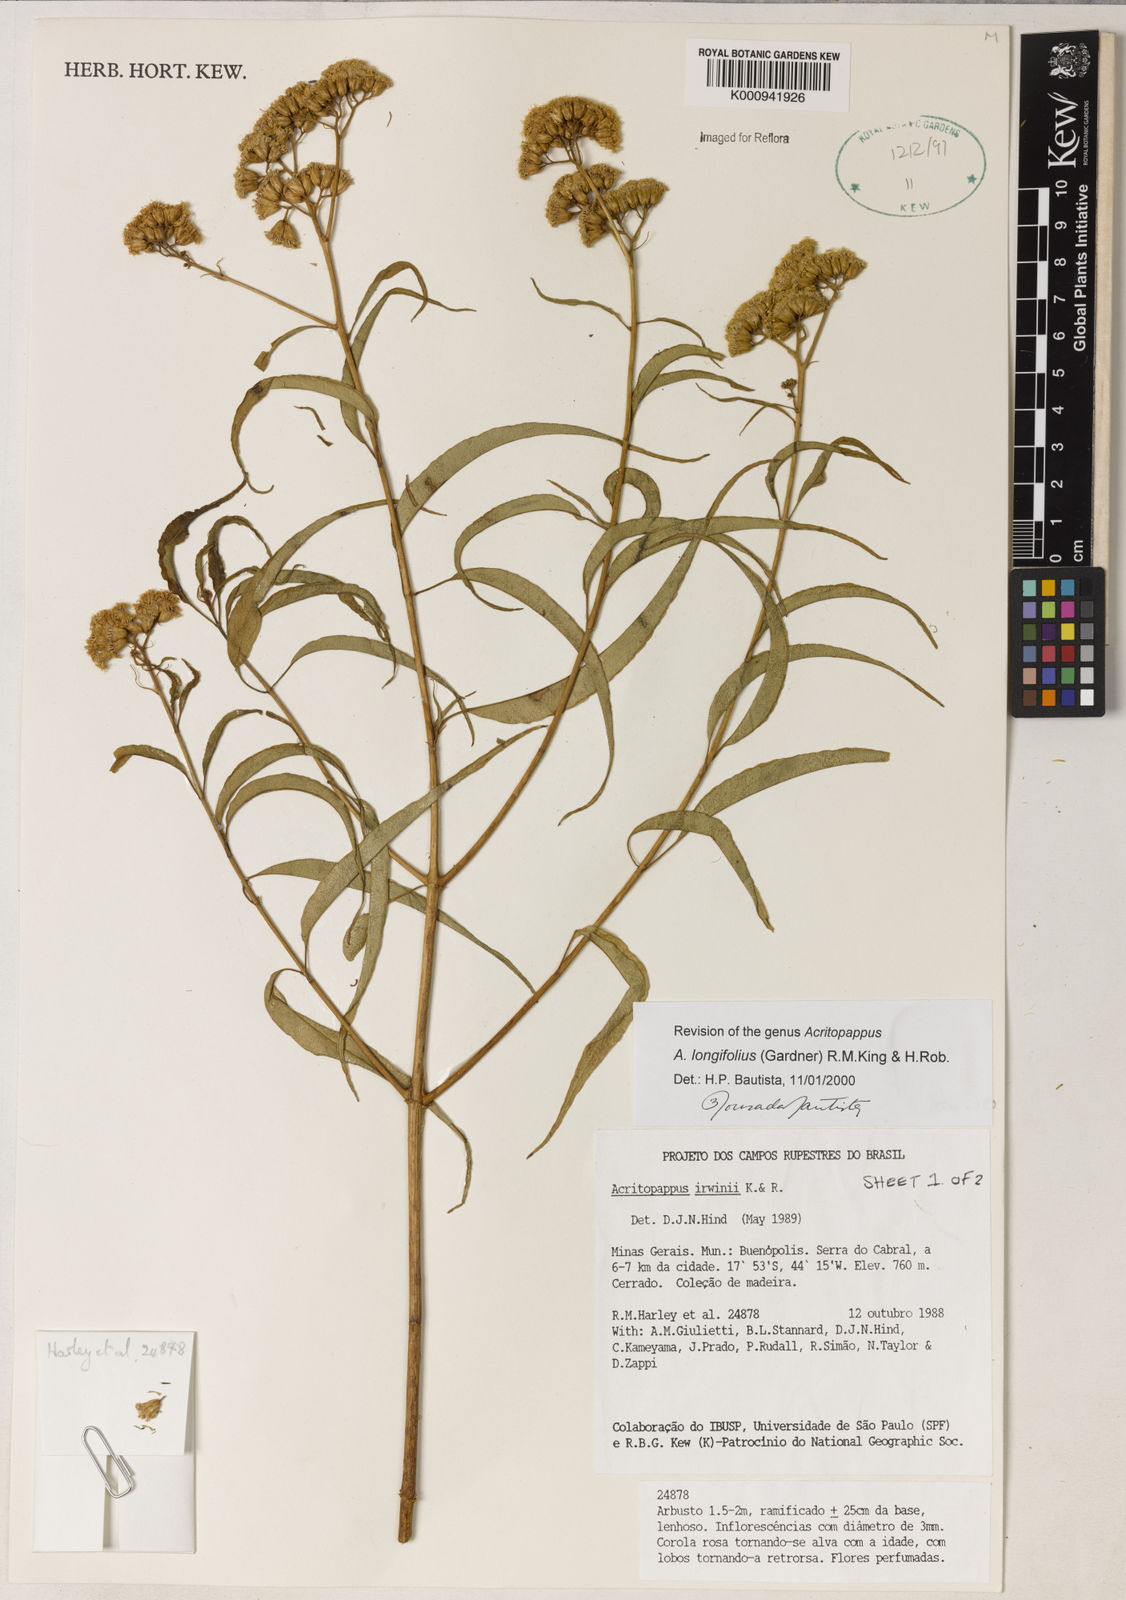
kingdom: Plantae
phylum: Tracheophyta
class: Magnoliopsida
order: Asterales
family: Asteraceae
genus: Acritopappus
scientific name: Acritopappus longifolius
